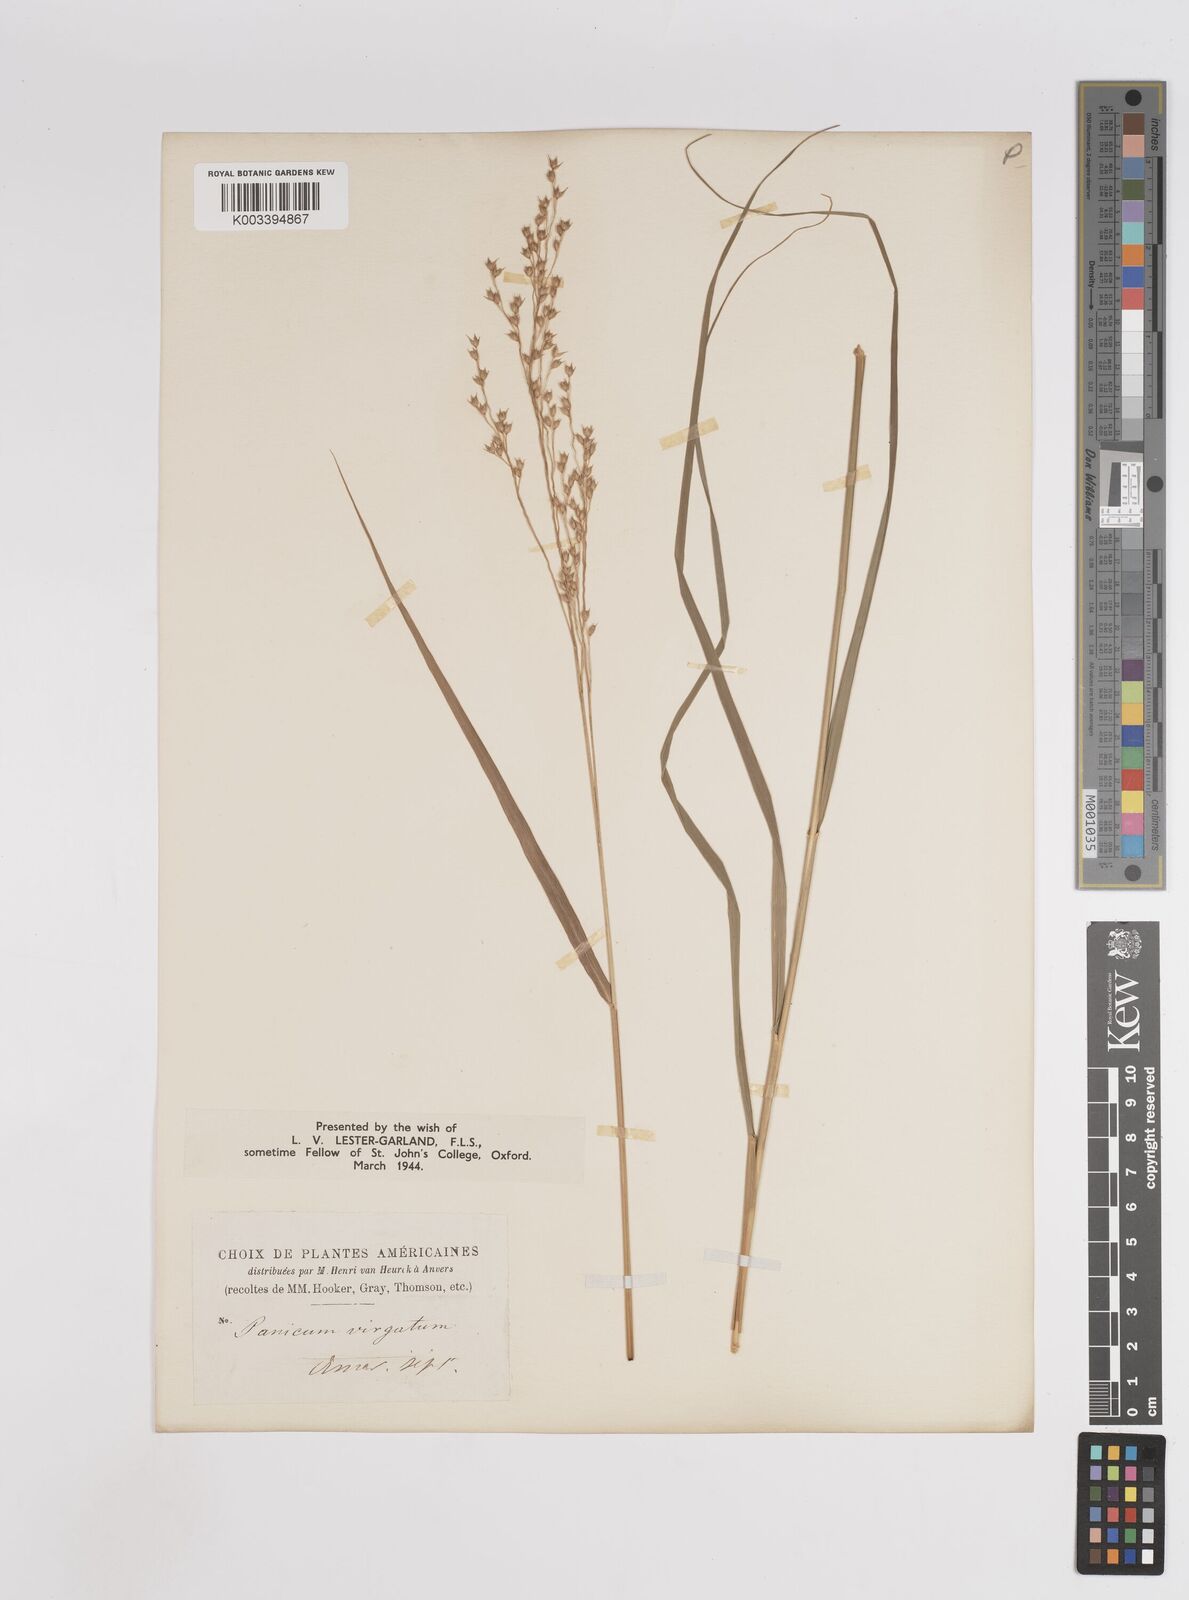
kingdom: Plantae
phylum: Tracheophyta
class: Liliopsida
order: Poales
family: Poaceae
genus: Panicum
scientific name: Panicum virgatum
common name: Switchgrass
